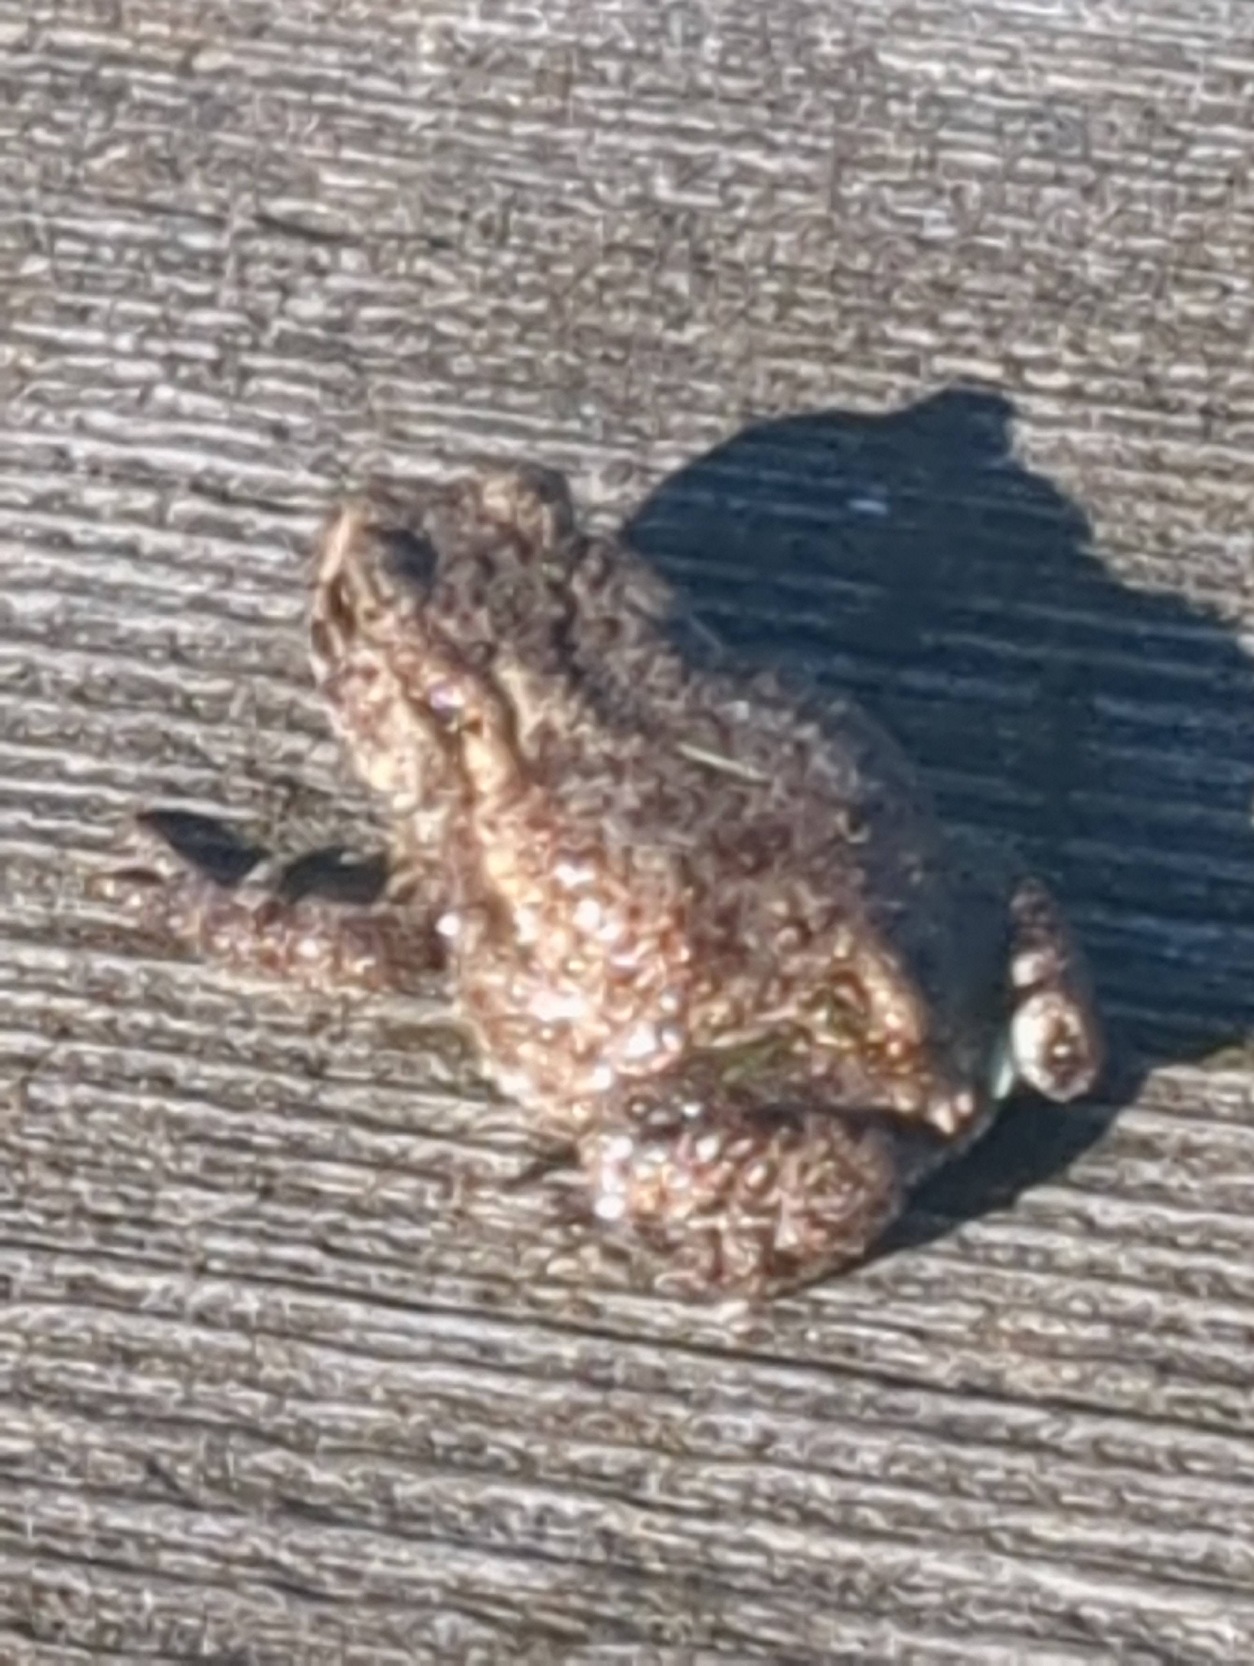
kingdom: Animalia
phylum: Chordata
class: Amphibia
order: Anura
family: Bufonidae
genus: Bufo
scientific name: Bufo bufo
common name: Skrubtudse
